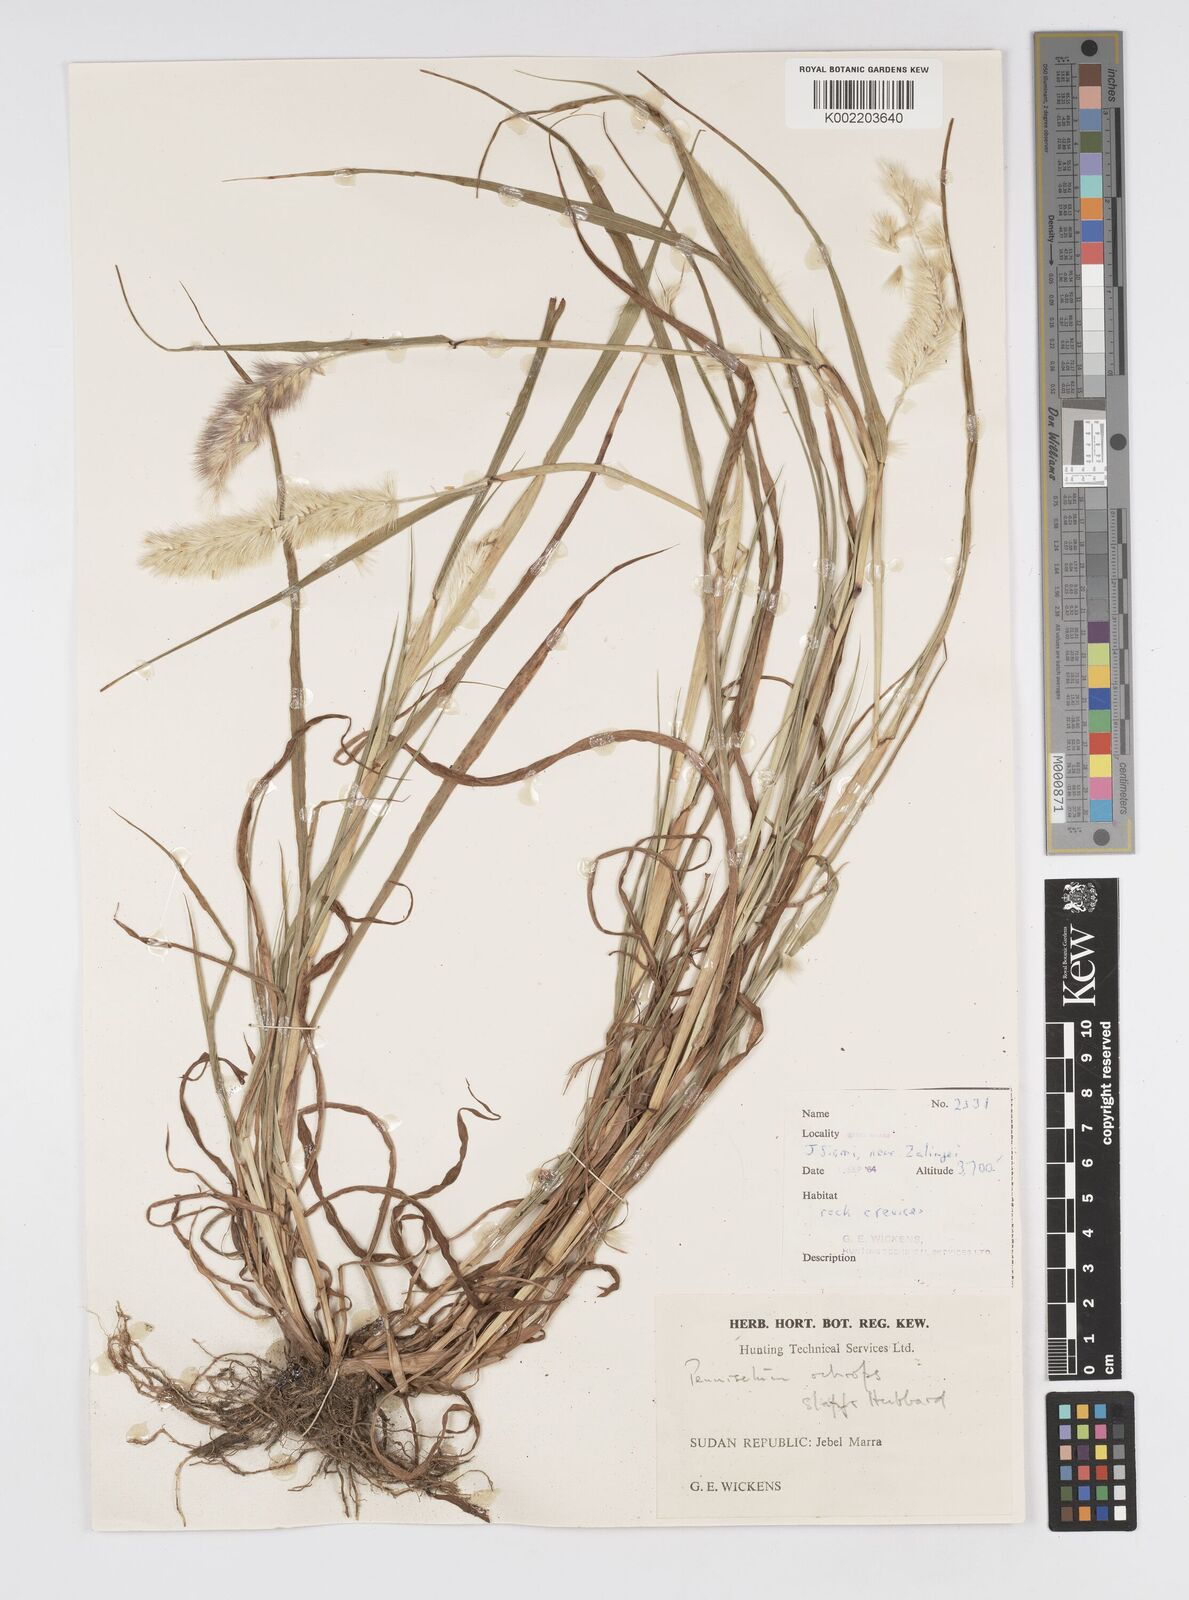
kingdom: Plantae
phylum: Tracheophyta
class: Liliopsida
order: Poales
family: Poaceae
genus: Cenchrus
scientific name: Cenchrus violaceus
